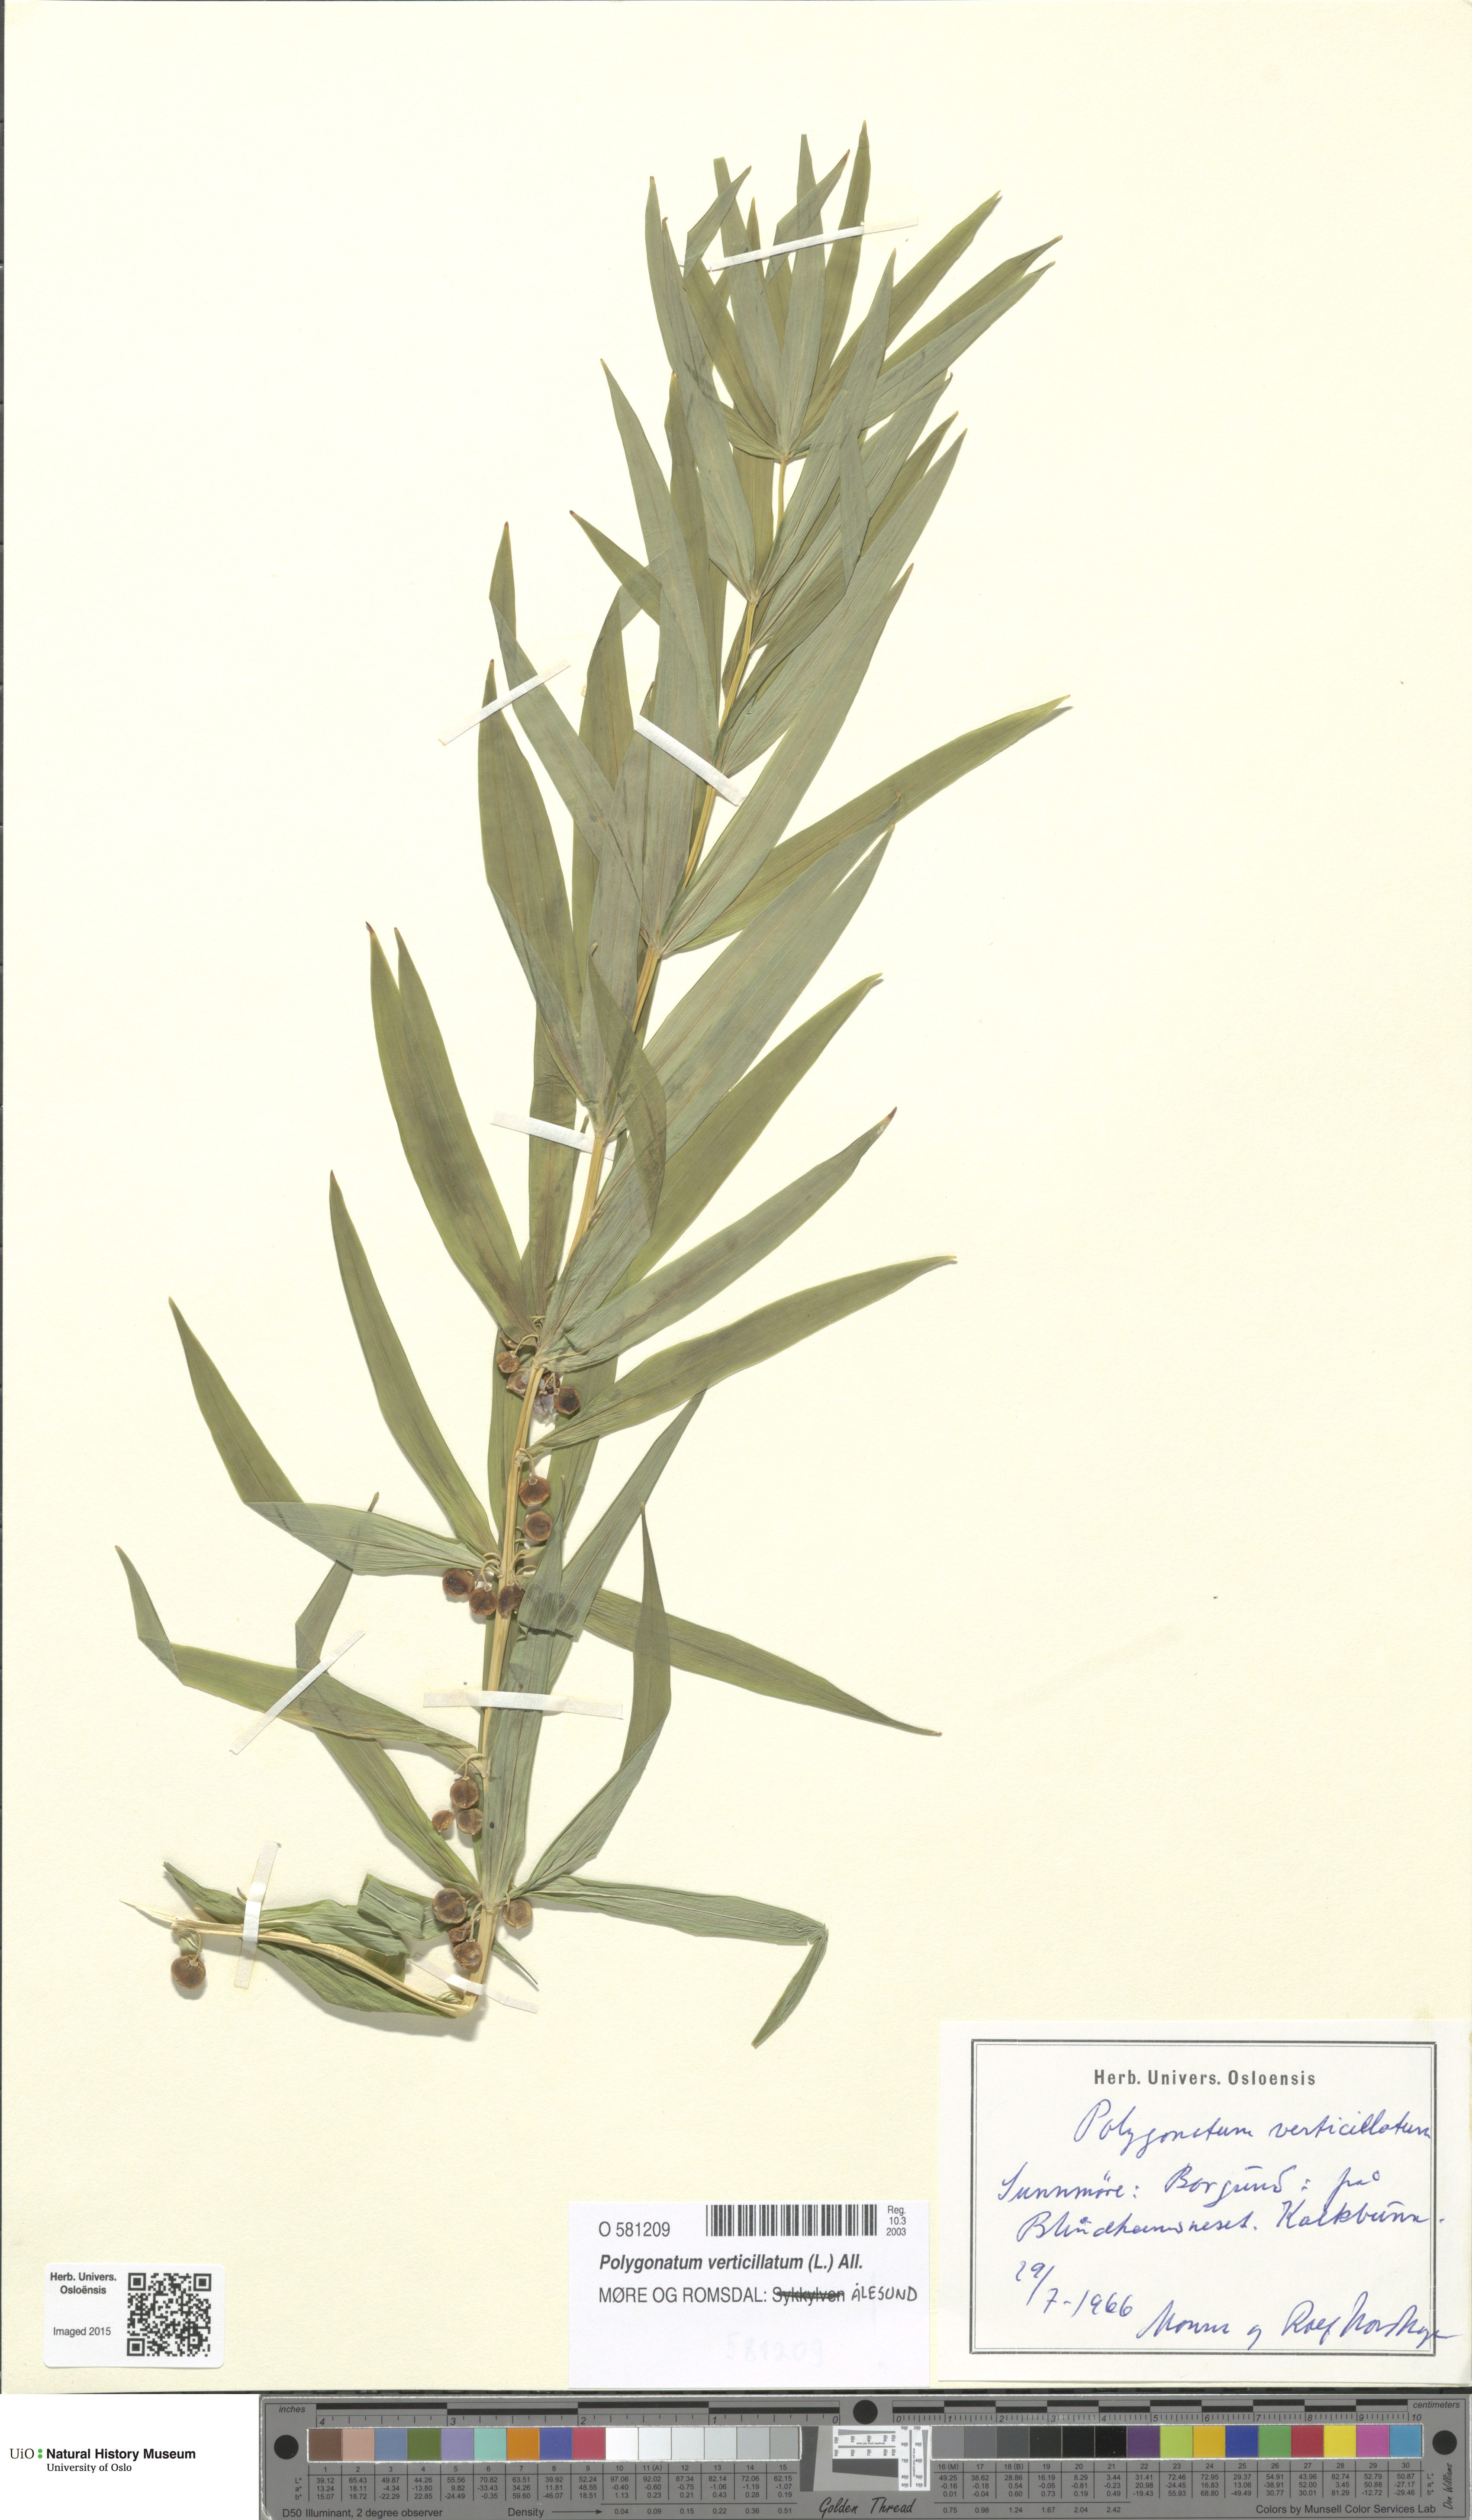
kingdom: Plantae
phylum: Tracheophyta
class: Liliopsida
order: Asparagales
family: Asparagaceae
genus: Polygonatum
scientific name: Polygonatum verticillatum
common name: Whorled solomon's-seal
